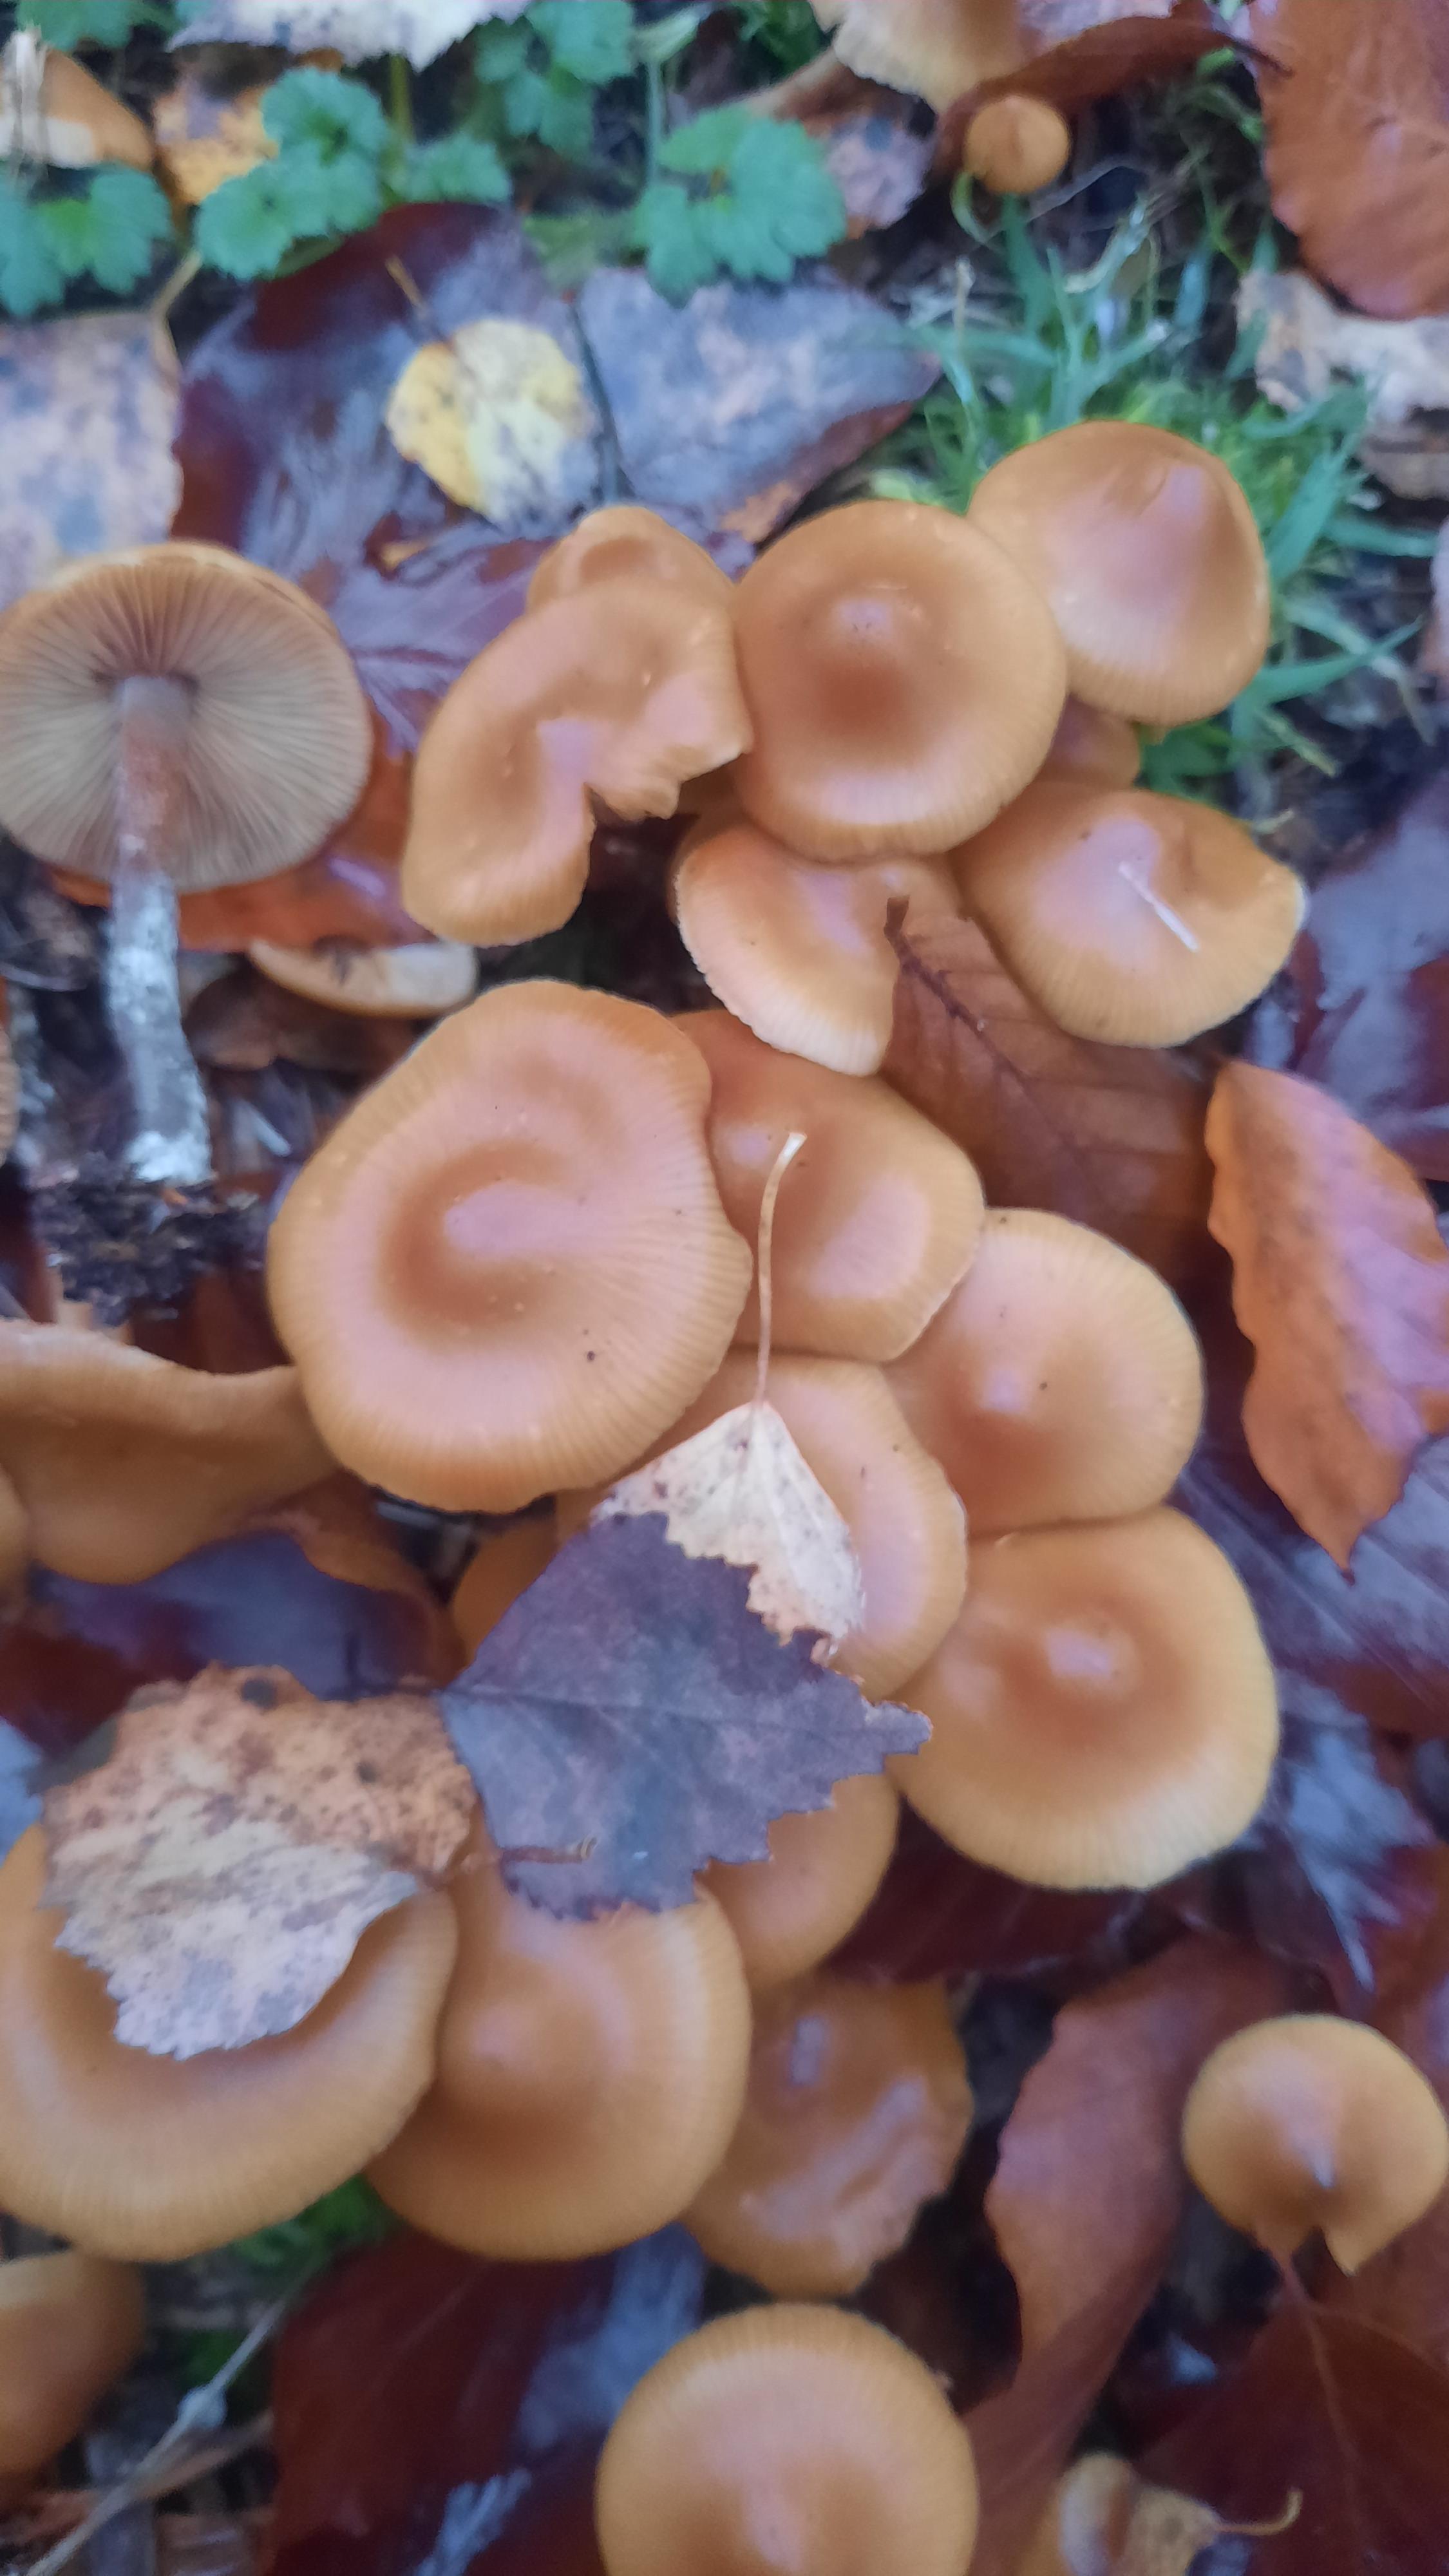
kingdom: Fungi
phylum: Basidiomycota
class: Agaricomycetes
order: Agaricales
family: Hymenogastraceae
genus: Galerina
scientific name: Galerina sideroides
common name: træflis-hjelmhat
